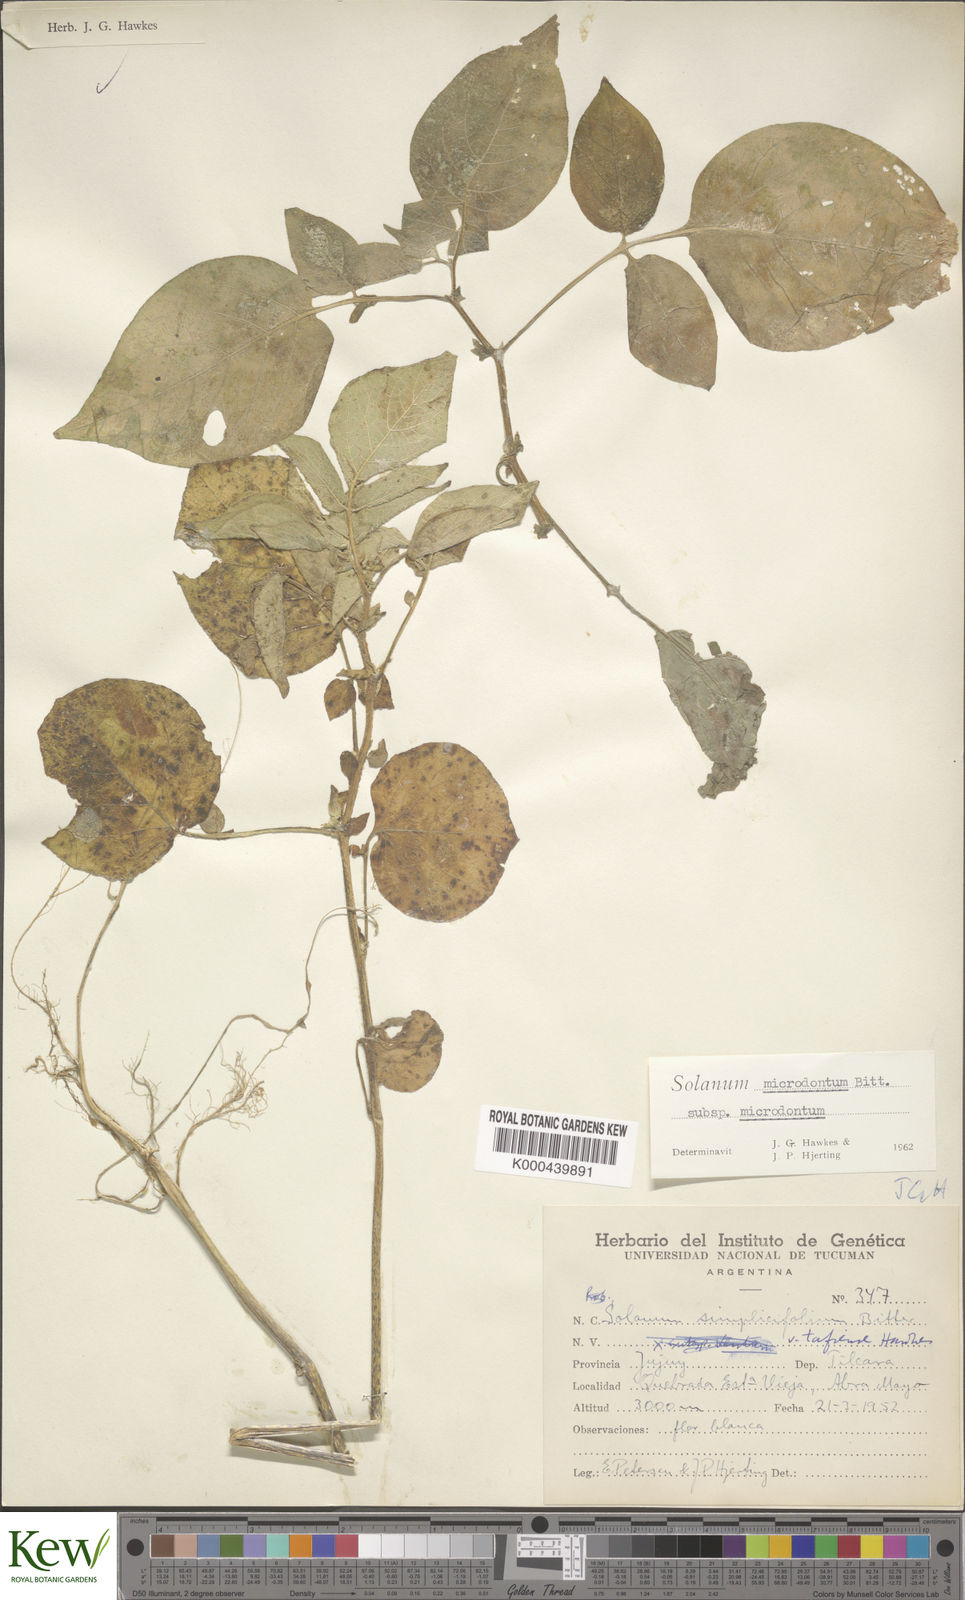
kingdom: Plantae
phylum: Tracheophyta
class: Magnoliopsida
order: Solanales
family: Solanaceae
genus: Solanum
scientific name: Solanum microdontum
